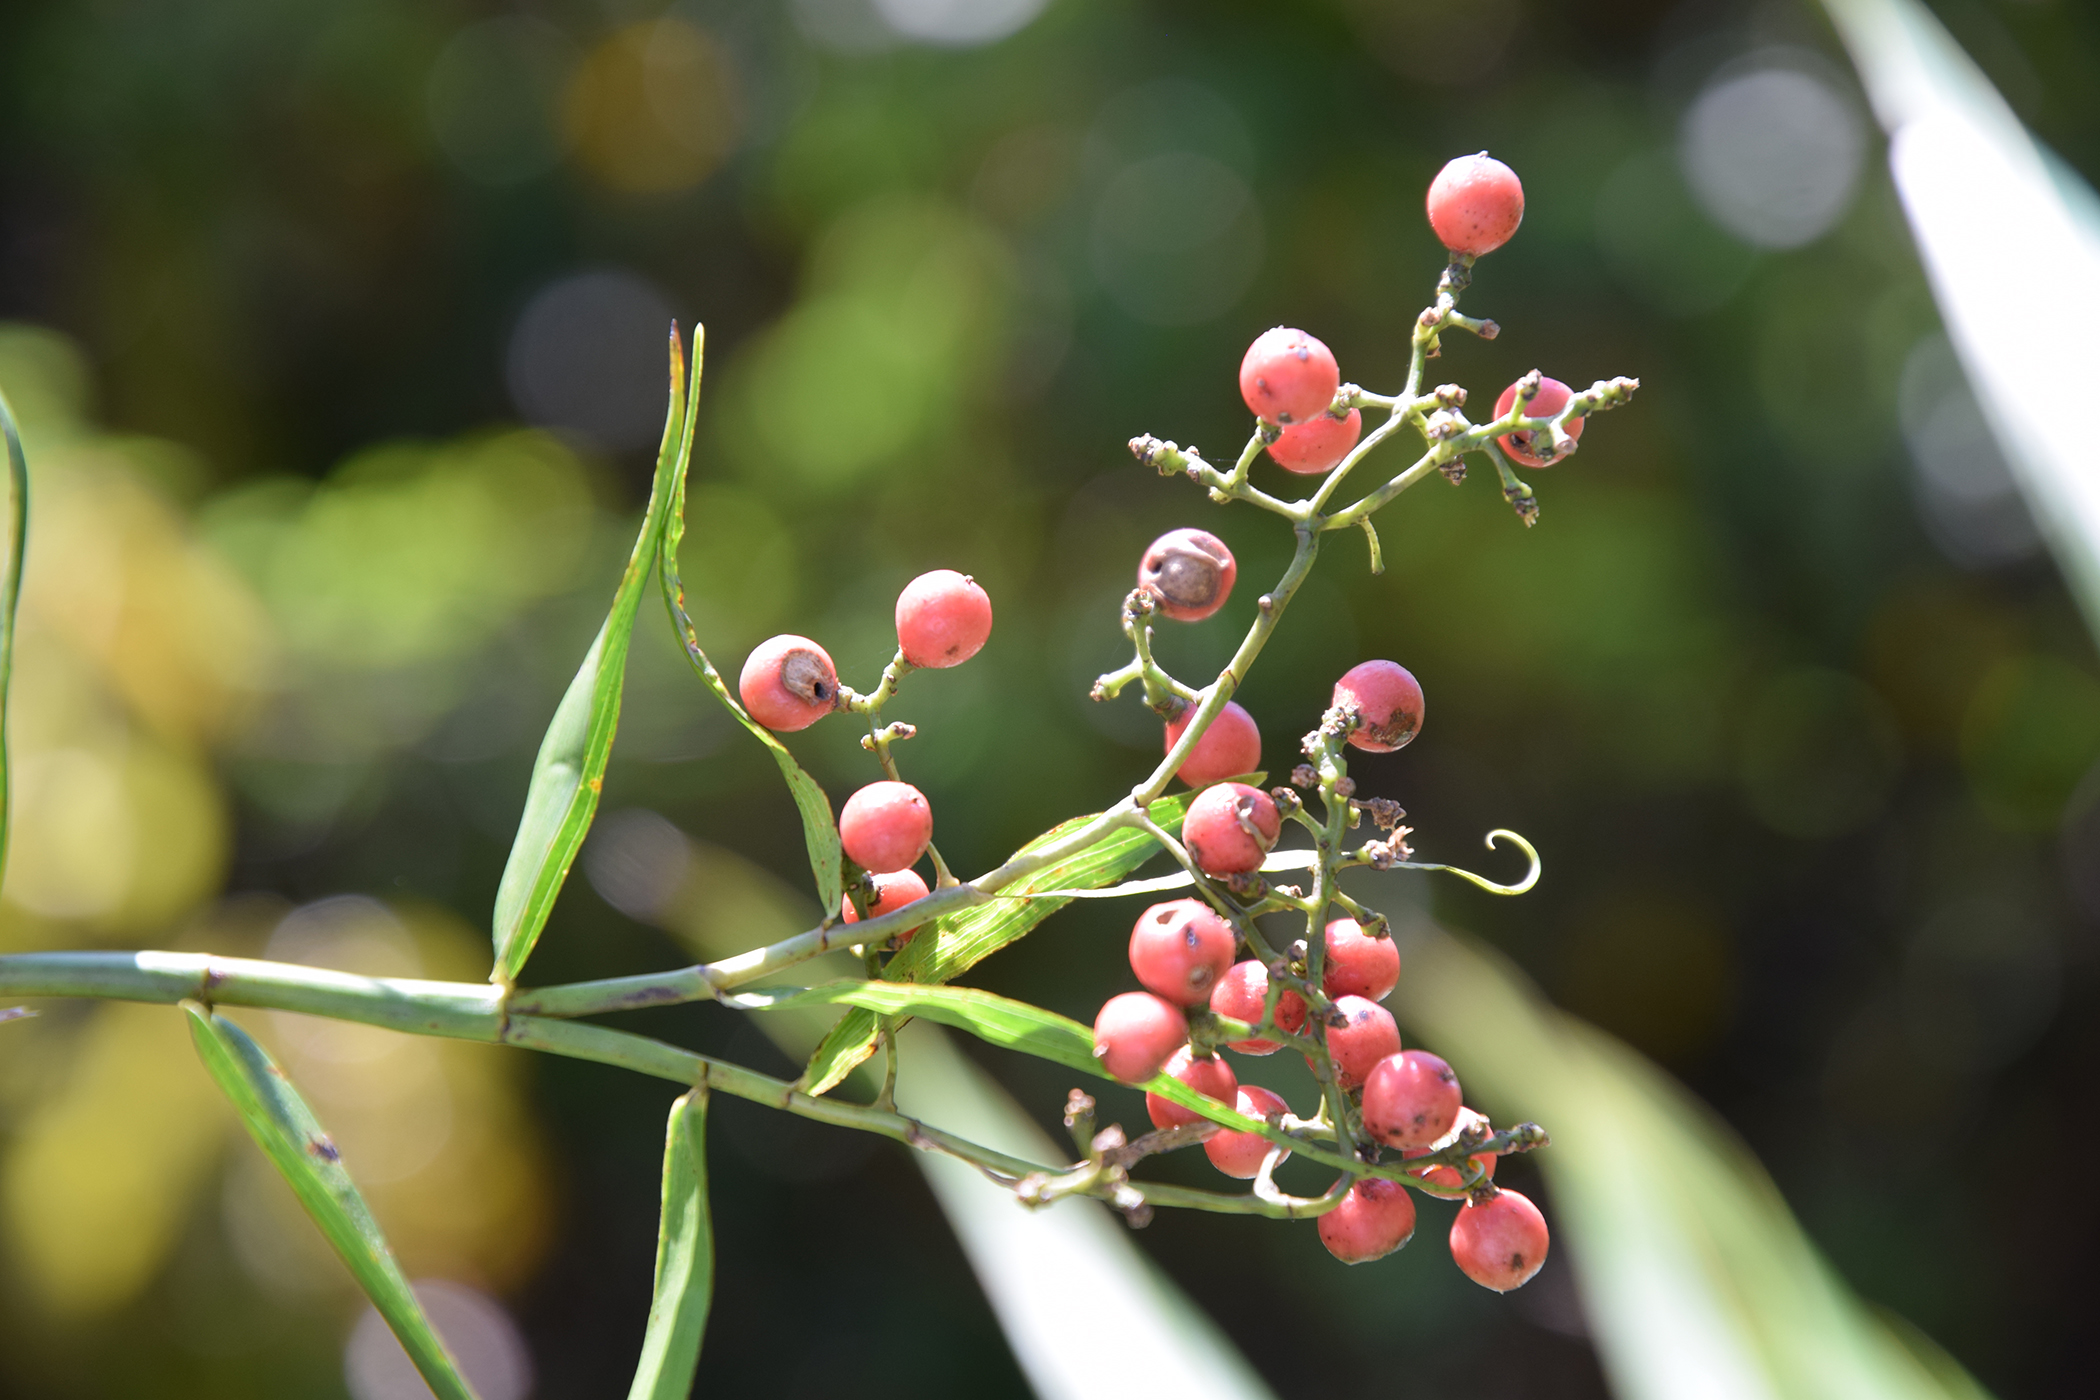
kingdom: Plantae
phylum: Tracheophyta
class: Liliopsida
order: Poales
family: Flagellariaceae
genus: Flagellaria
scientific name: Flagellaria indica
